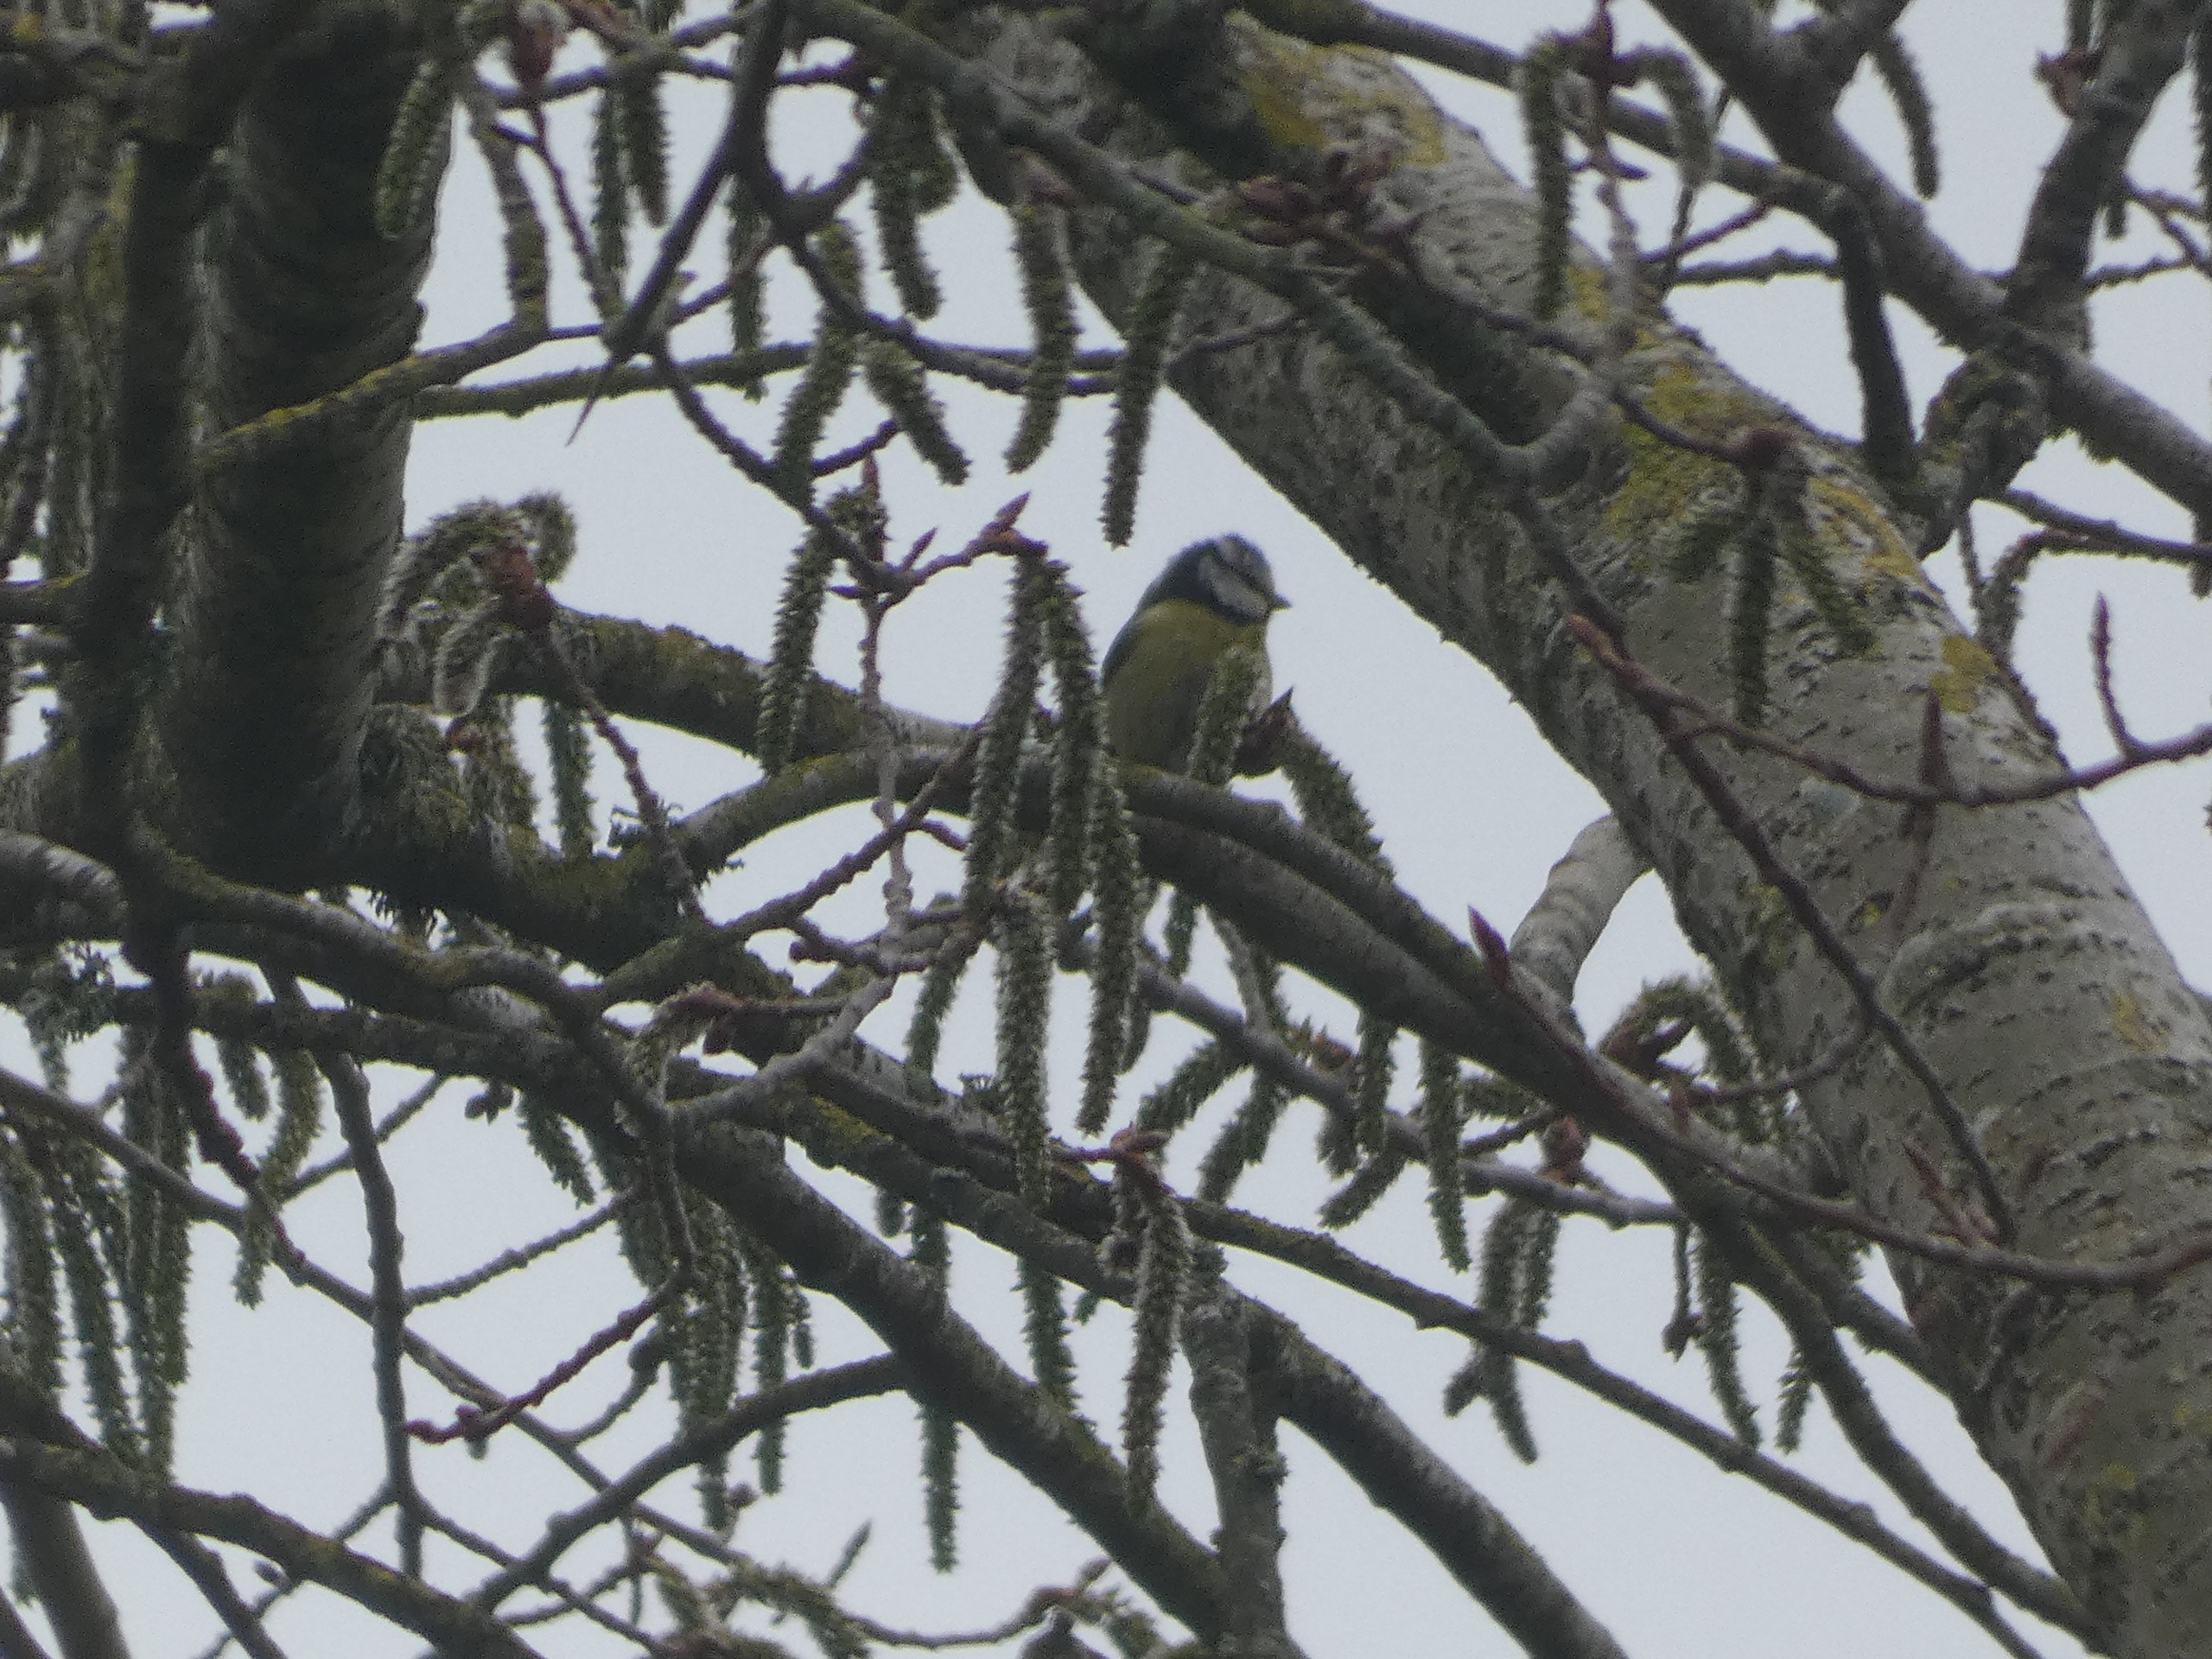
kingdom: Animalia
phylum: Chordata
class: Aves
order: Passeriformes
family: Paridae
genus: Cyanistes
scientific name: Cyanistes caeruleus
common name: Blåmejse
